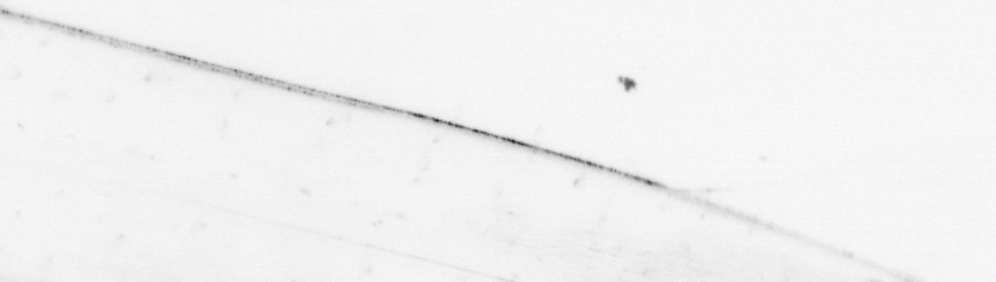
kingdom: Animalia
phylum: Chaetognatha
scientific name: Chaetognatha
